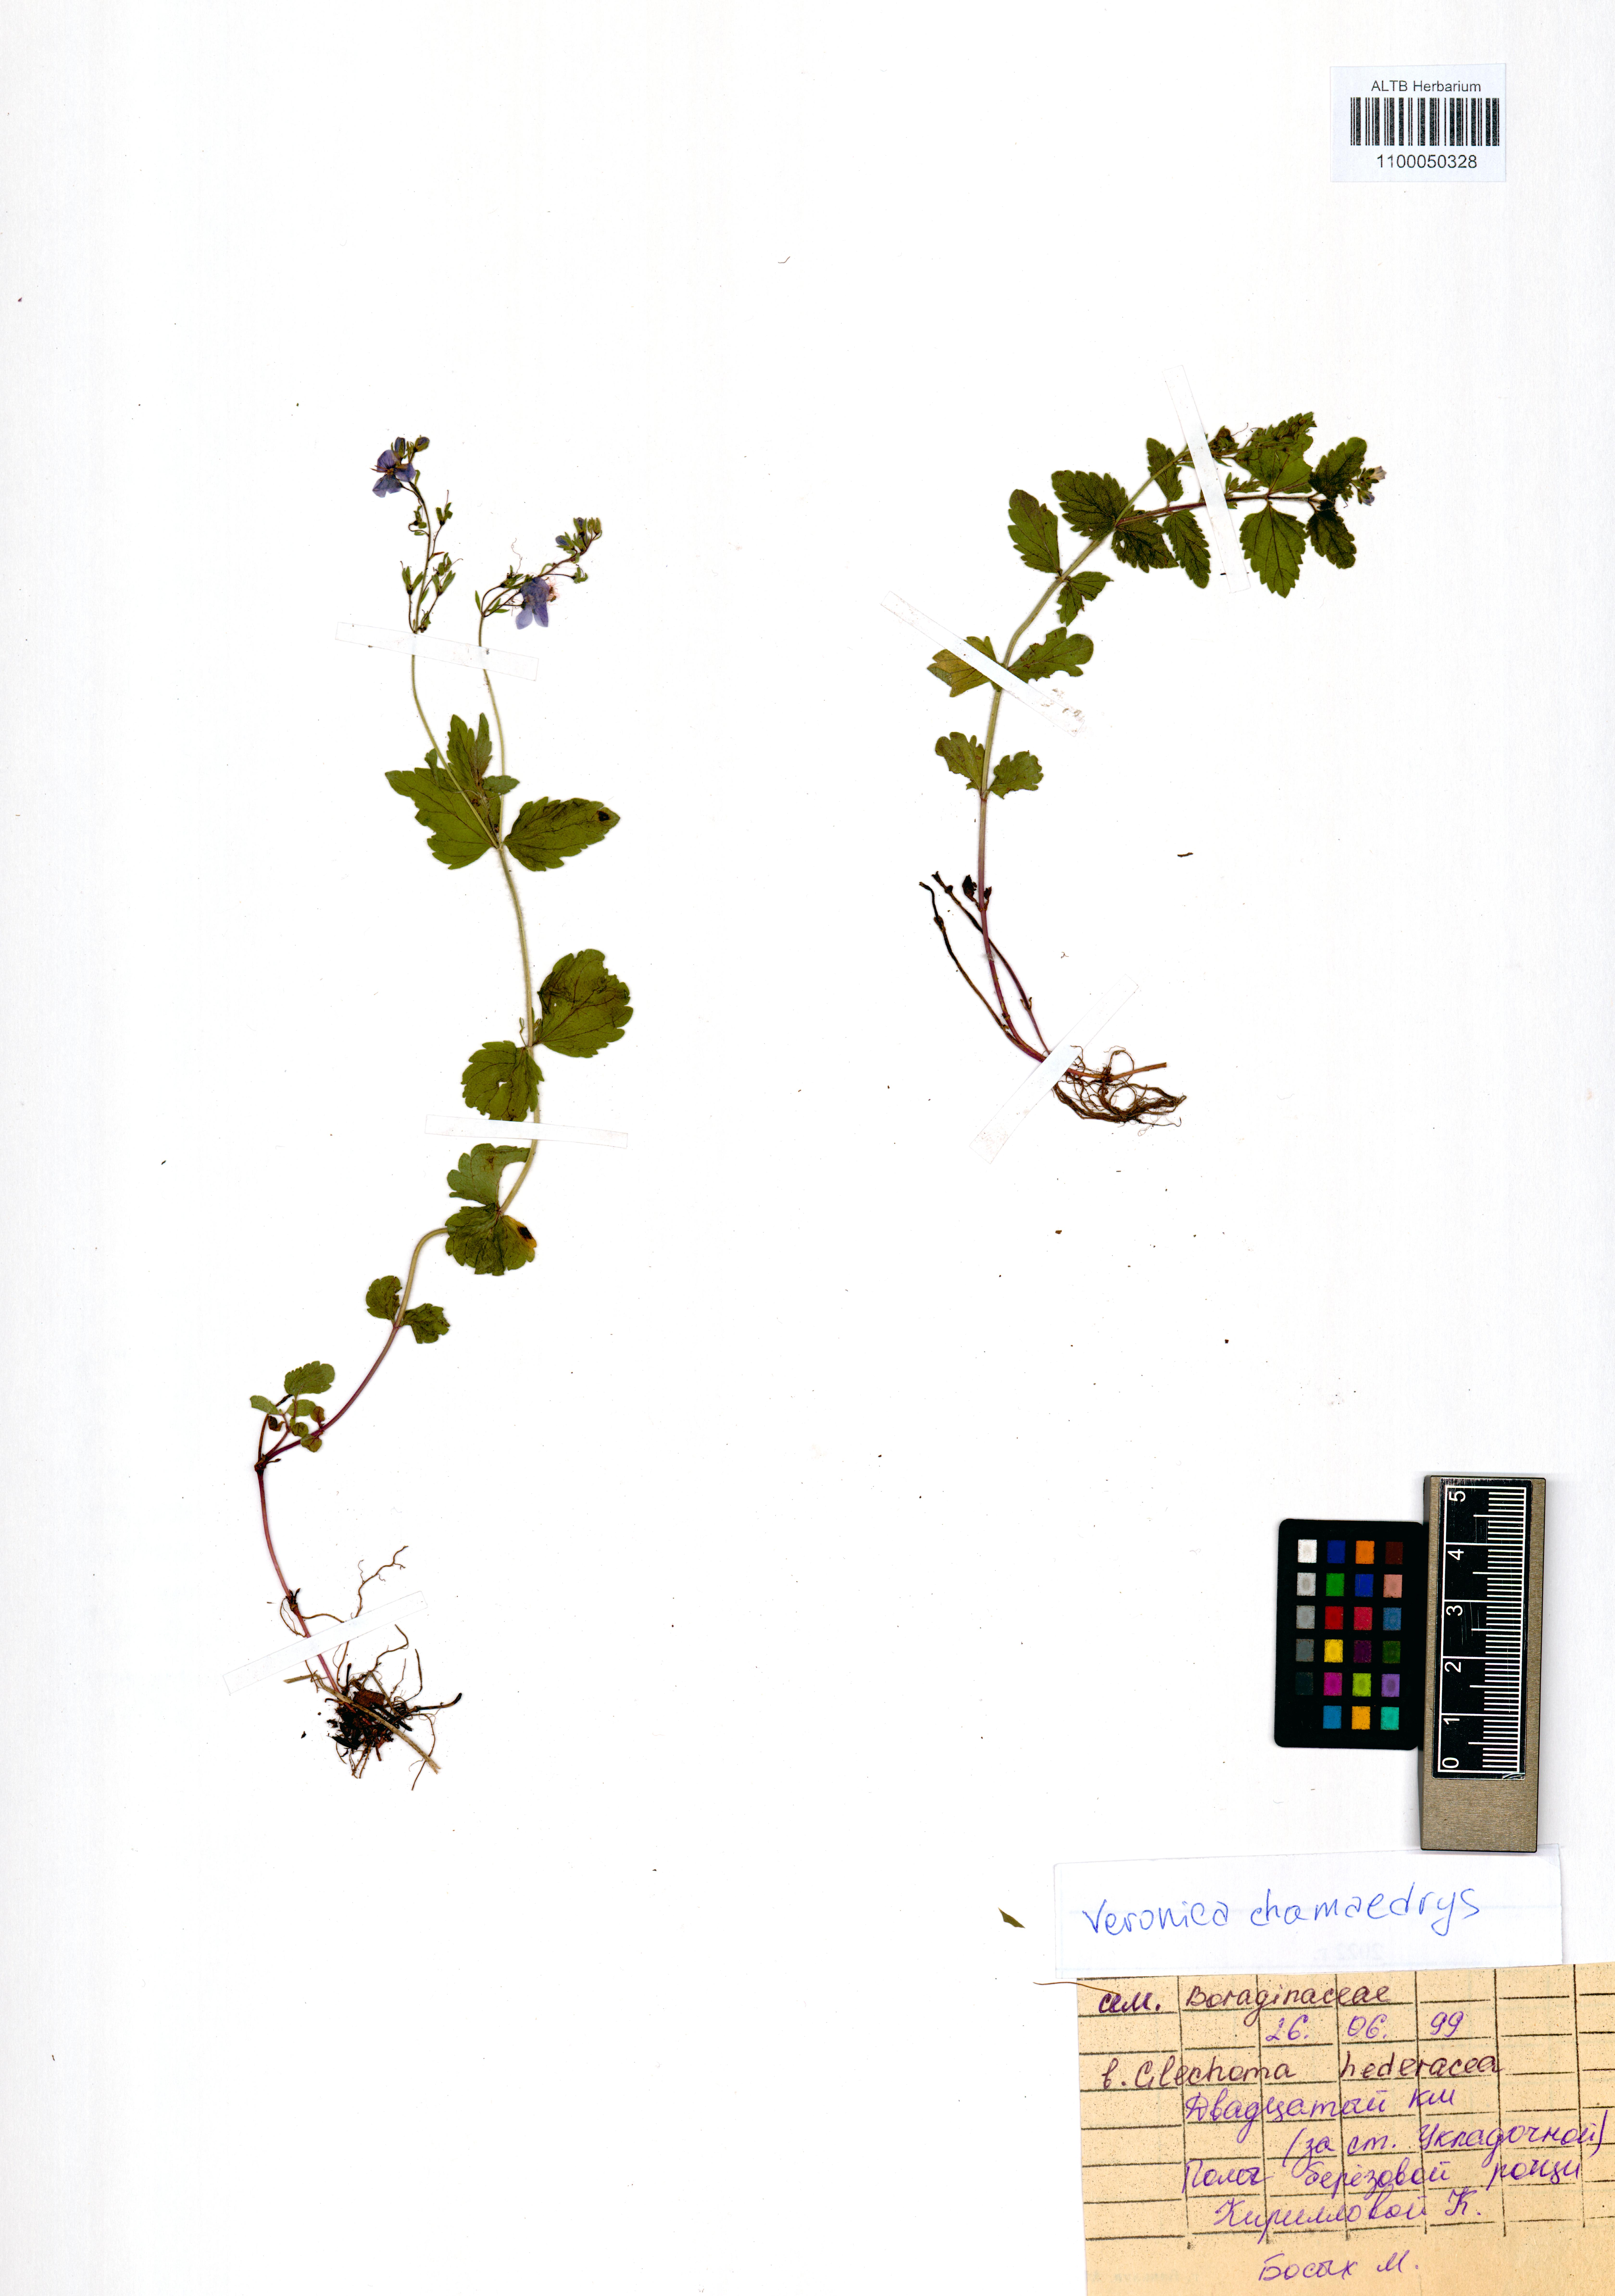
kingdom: Plantae
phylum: Tracheophyta
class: Magnoliopsida
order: Lamiales
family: Plantaginaceae
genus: Veronica
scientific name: Veronica chamaedrys
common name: Germander speedwell
